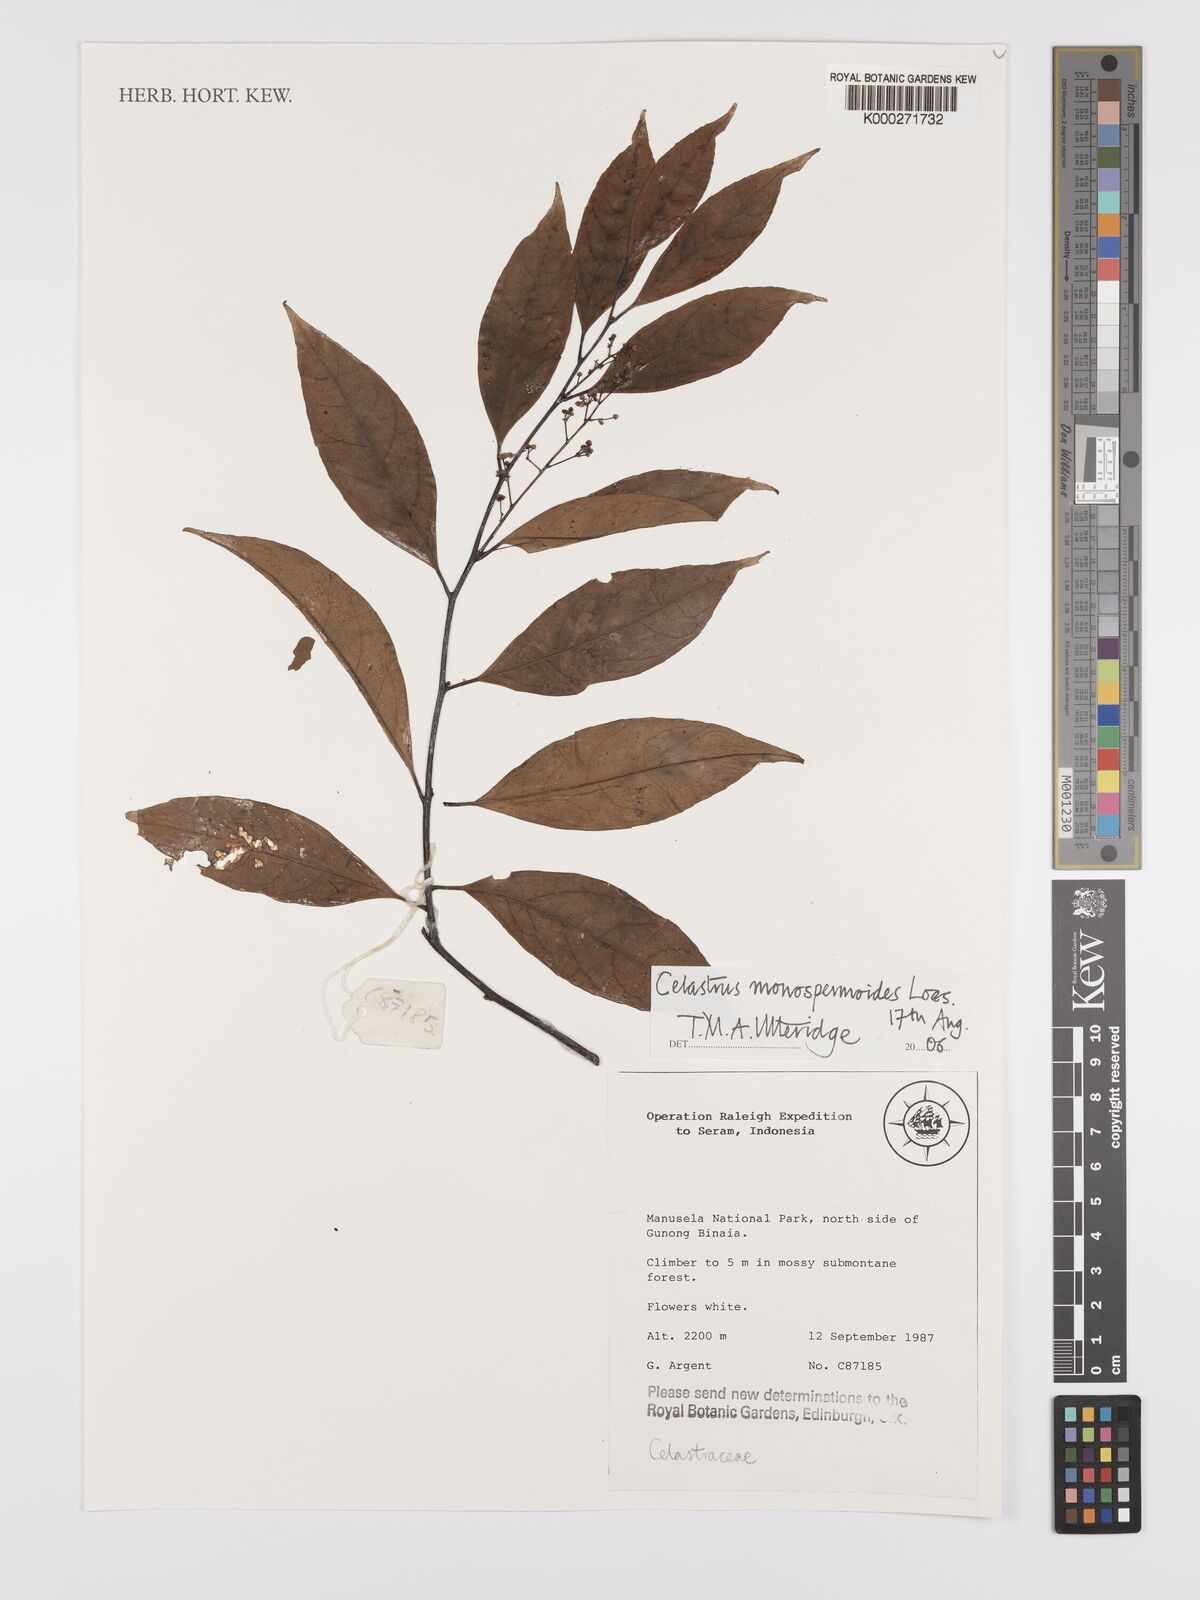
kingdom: Plantae
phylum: Tracheophyta
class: Magnoliopsida
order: Celastrales
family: Celastraceae
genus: Celastrus
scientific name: Celastrus monospermoides
